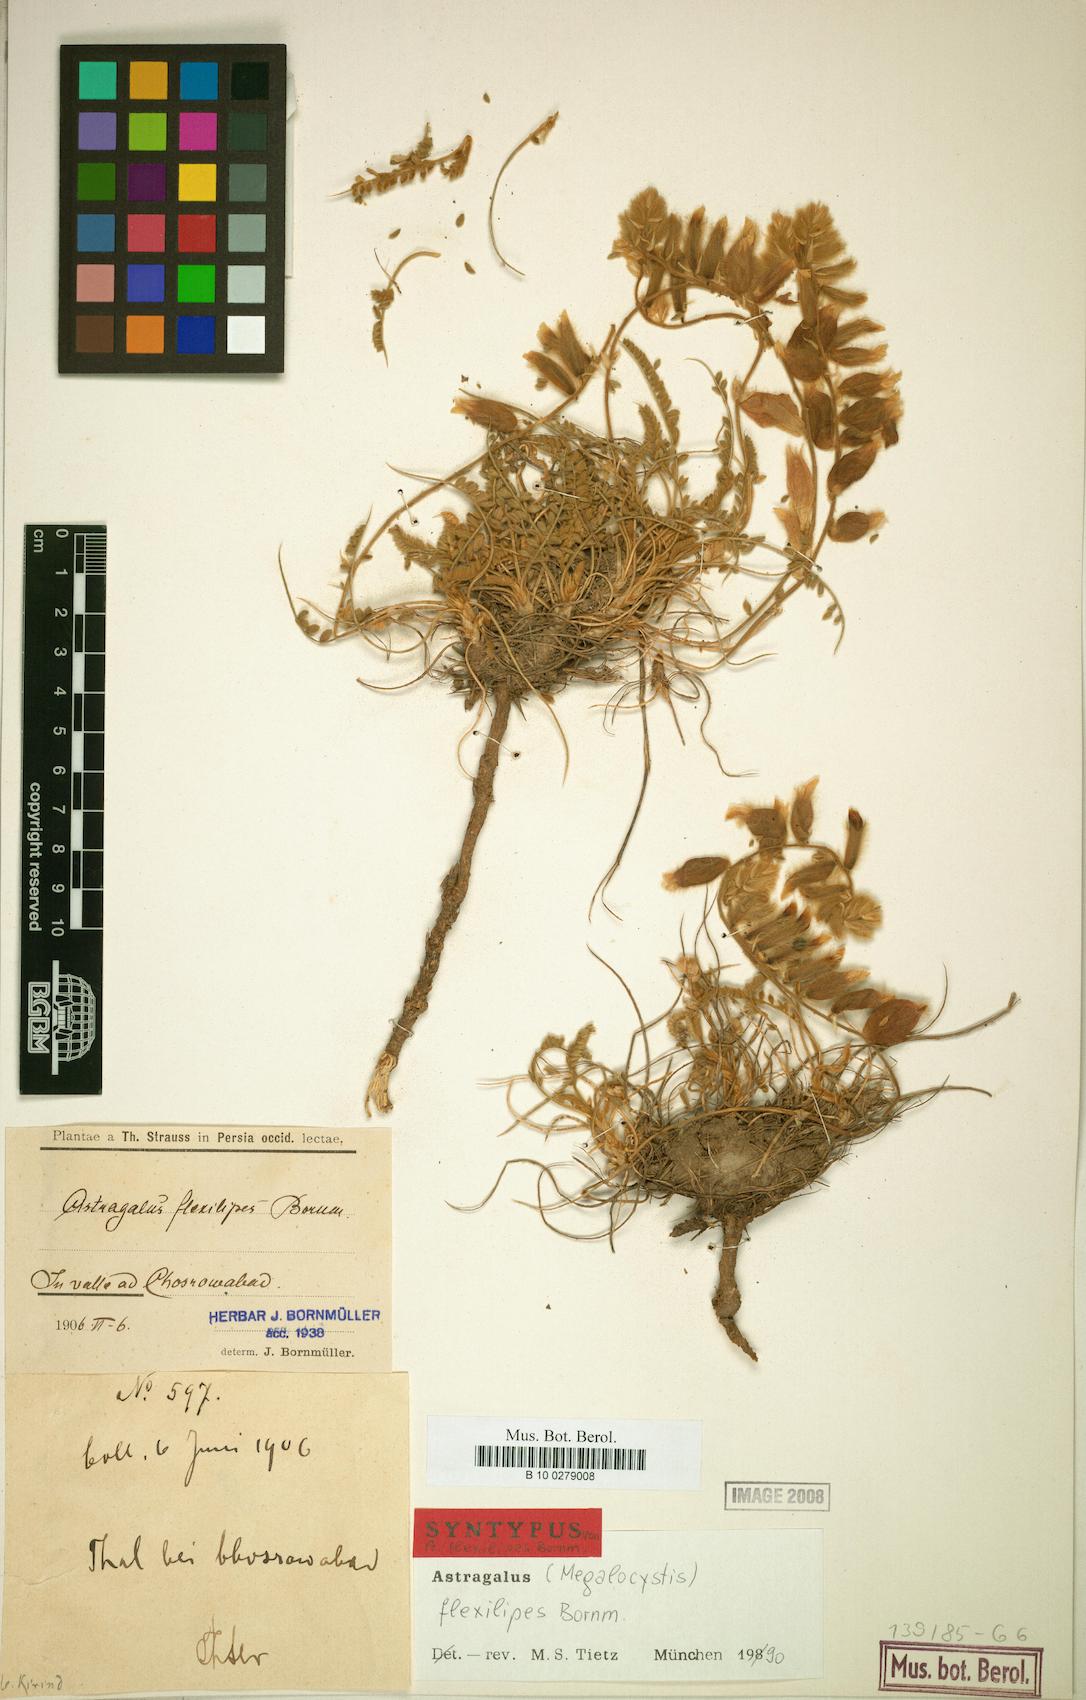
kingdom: Plantae
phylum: Tracheophyta
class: Magnoliopsida
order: Fabales
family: Fabaceae
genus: Astragalus
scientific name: Astragalus flexilipes
